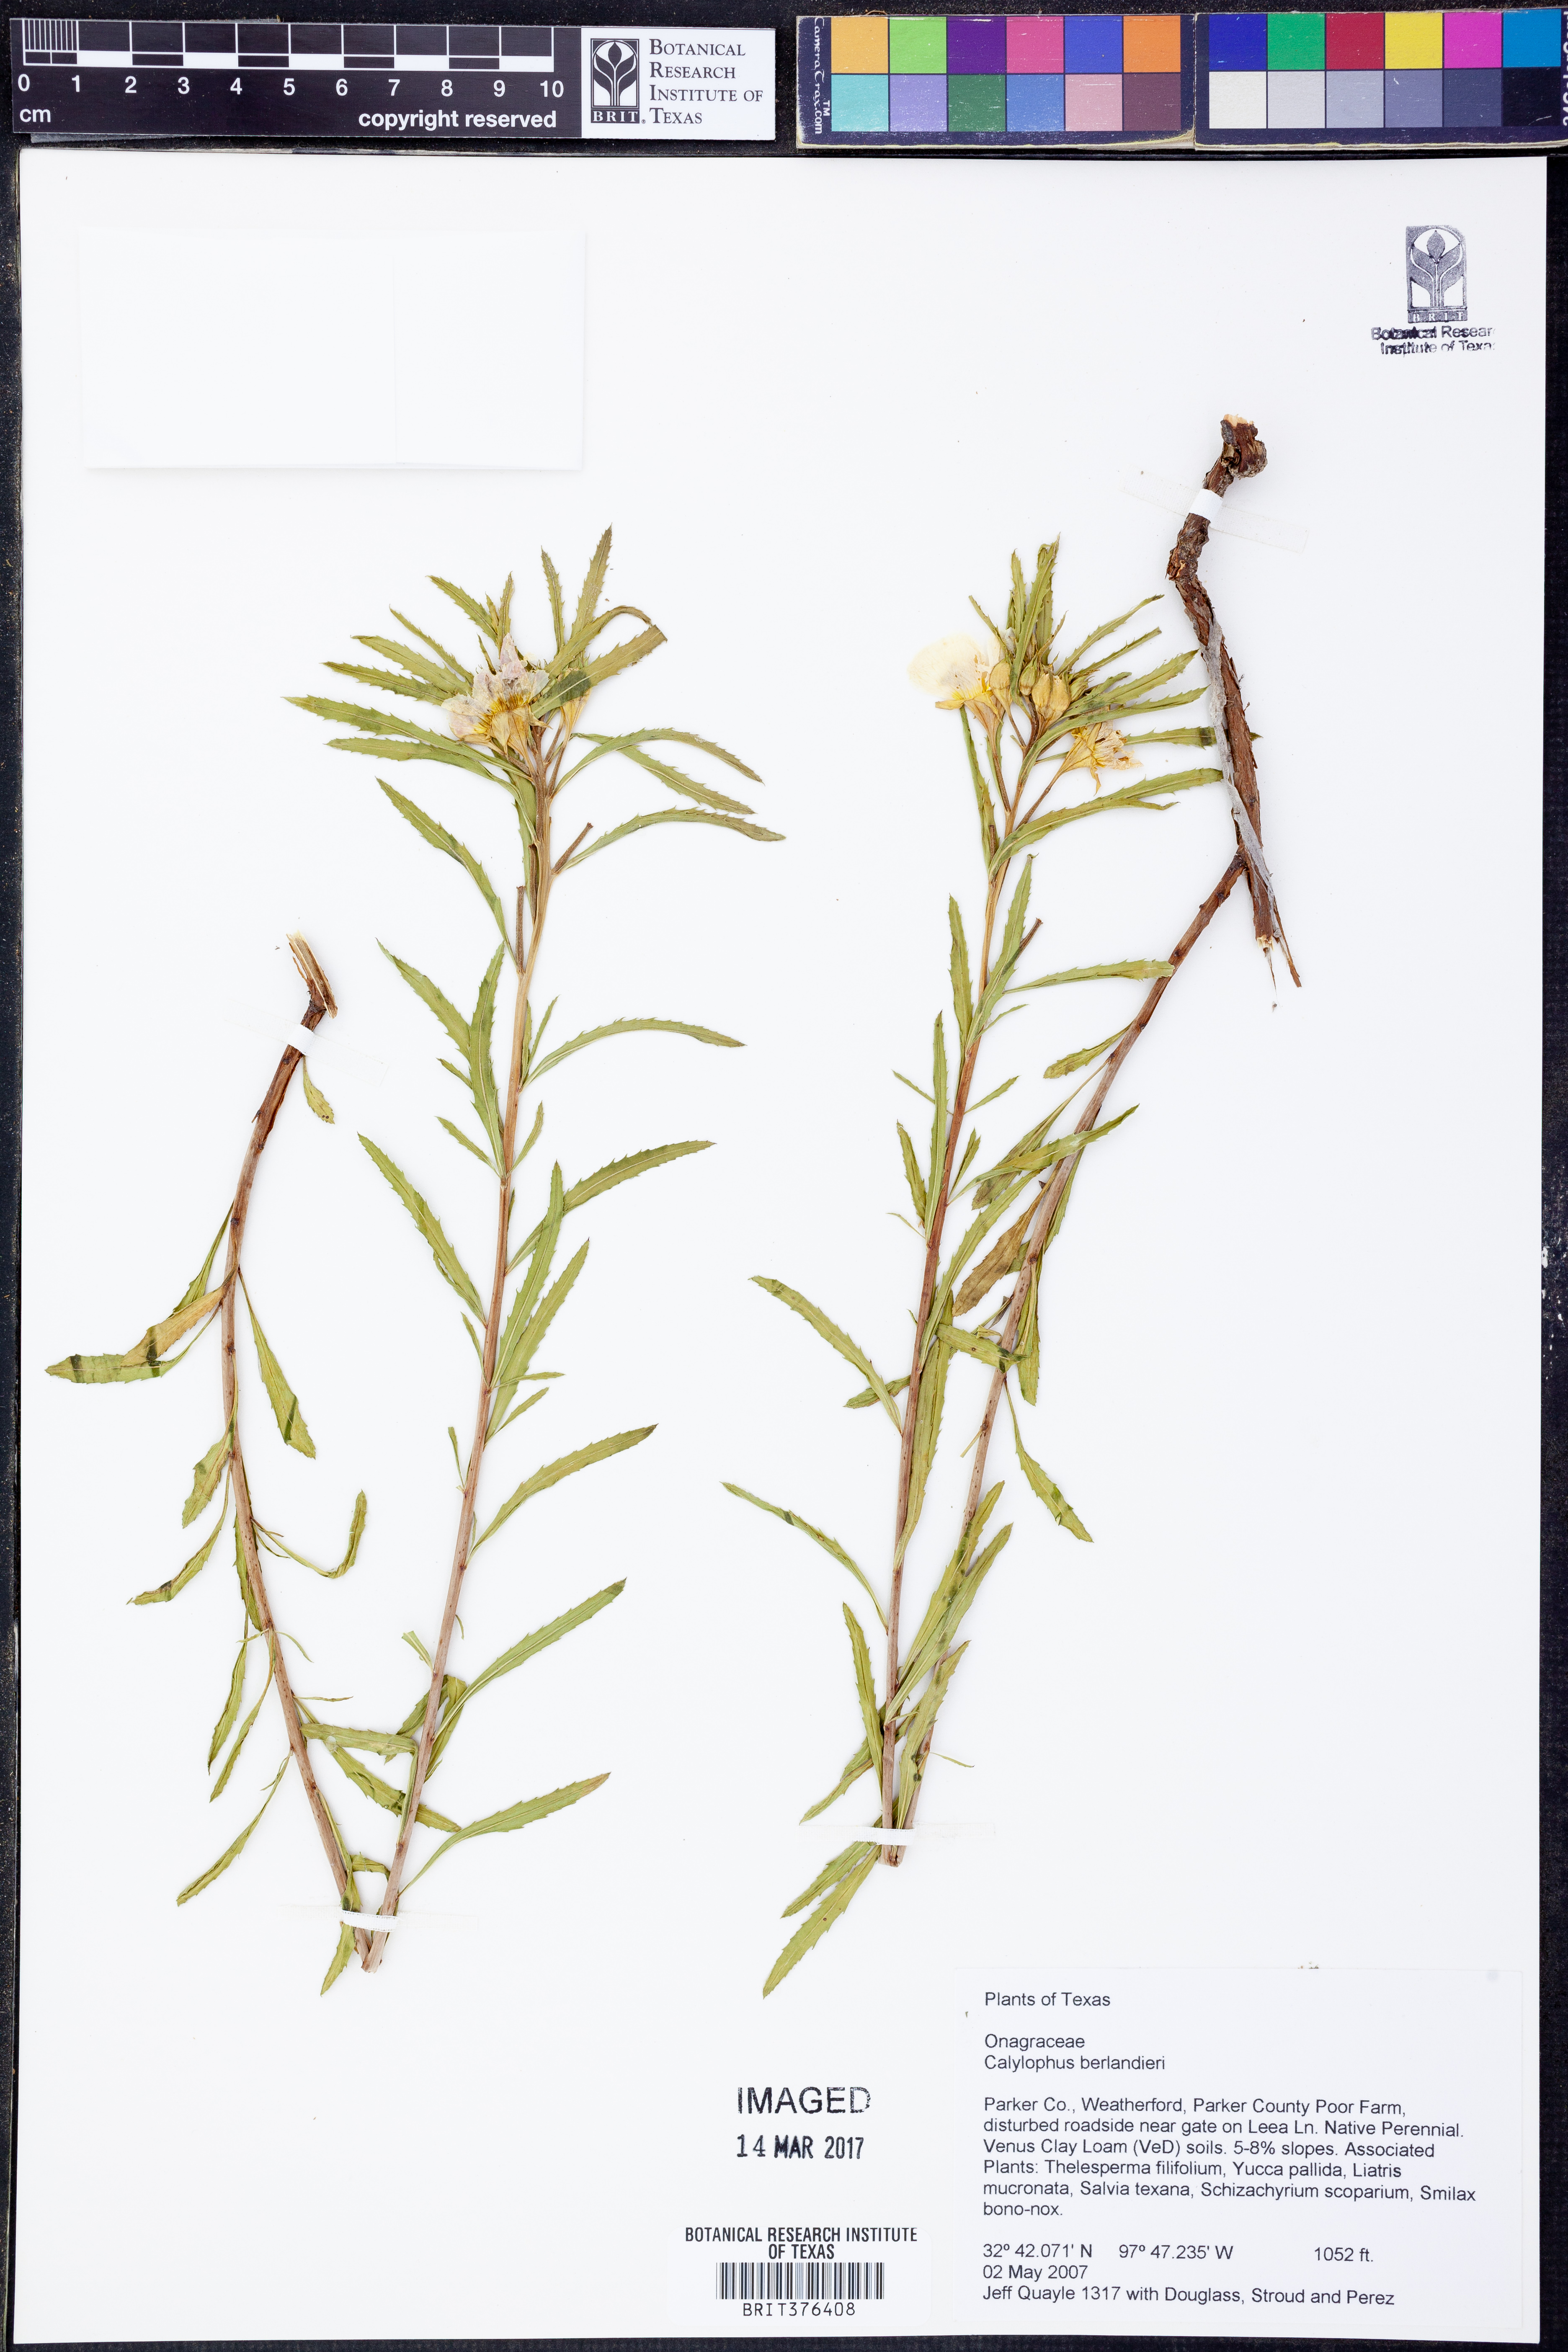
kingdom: Plantae
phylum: Tracheophyta
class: Magnoliopsida
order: Myrtales
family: Onagraceae
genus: Oenothera
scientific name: Oenothera capillifolia
